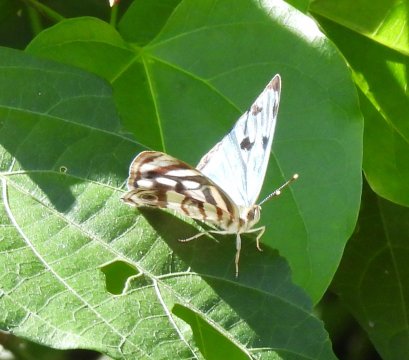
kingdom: Animalia
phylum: Arthropoda
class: Insecta
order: Lepidoptera
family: Nymphalidae
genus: Dynamine
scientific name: Dynamine mylitta
